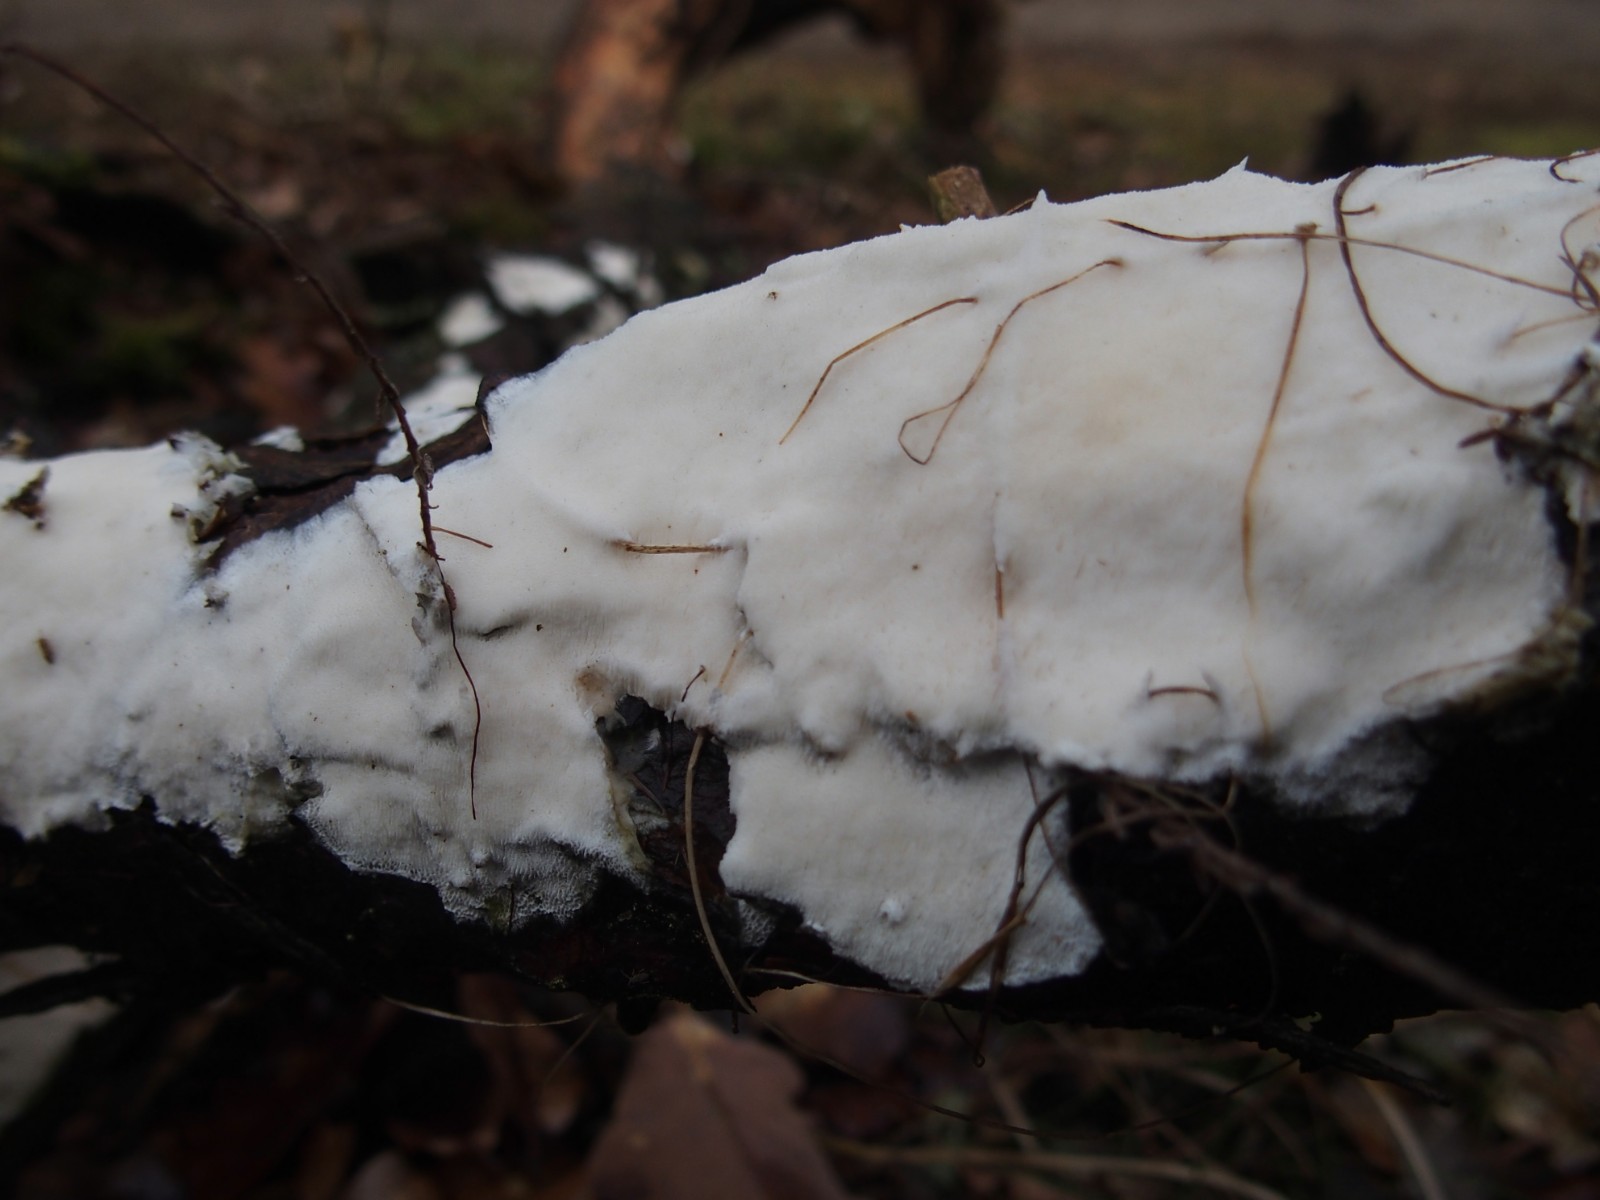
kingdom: Fungi
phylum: Basidiomycota
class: Agaricomycetes
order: Hymenochaetales
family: Rickenellaceae
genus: Sidera
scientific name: Sidera vulgaris
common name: fin flødeporesvamp
